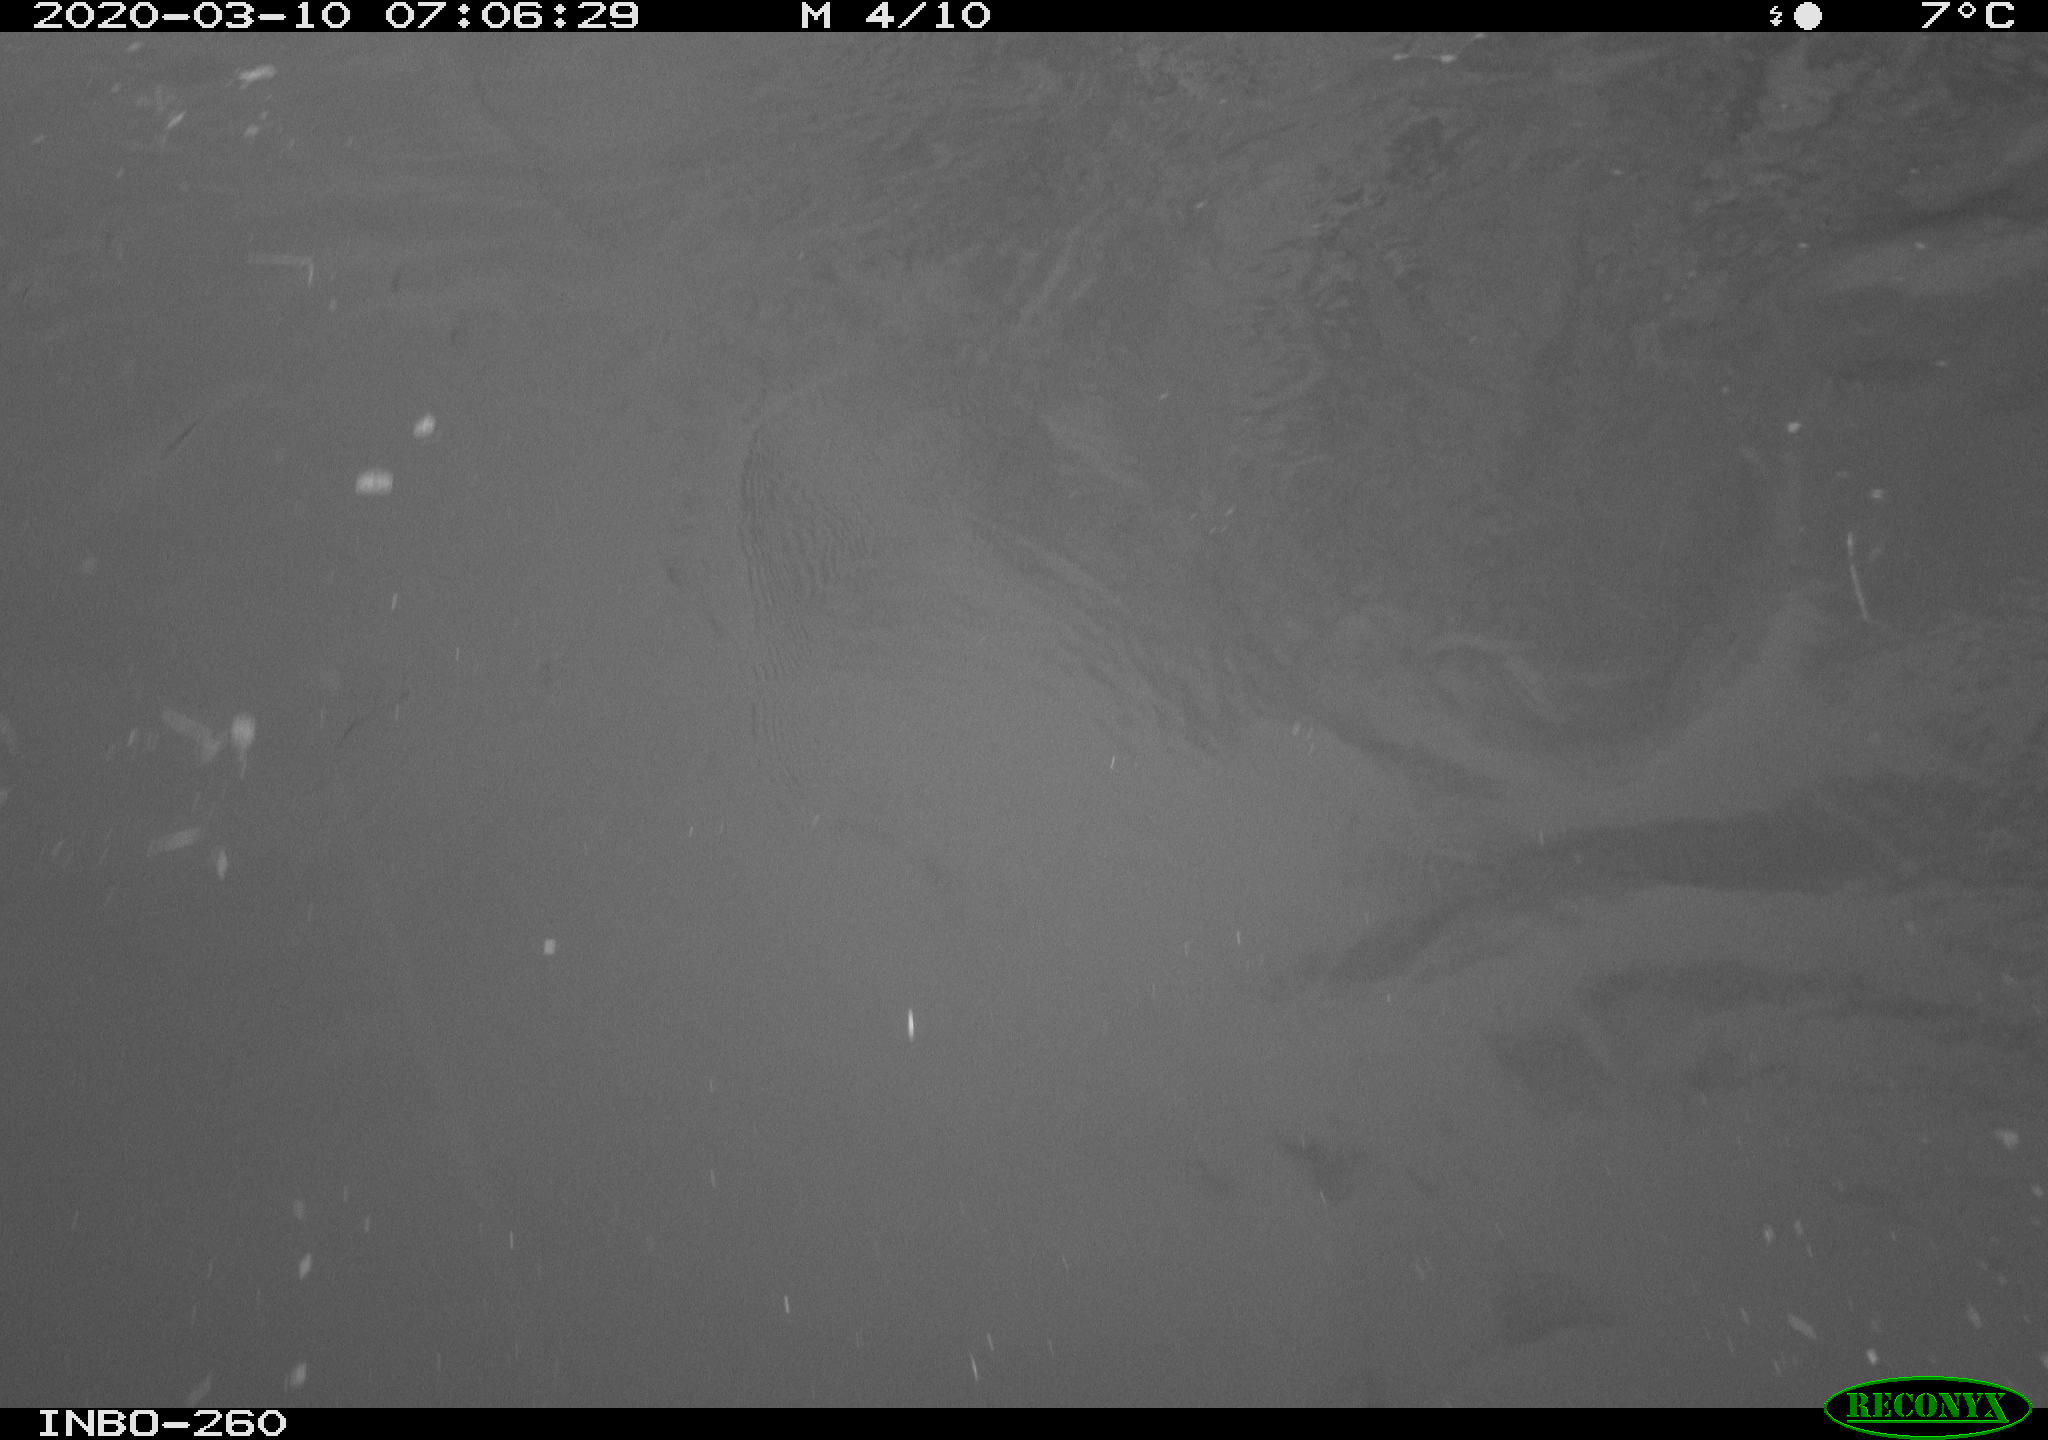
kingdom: Animalia
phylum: Chordata
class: Aves
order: Anseriformes
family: Anatidae
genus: Anas
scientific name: Anas platyrhynchos
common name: Mallard
